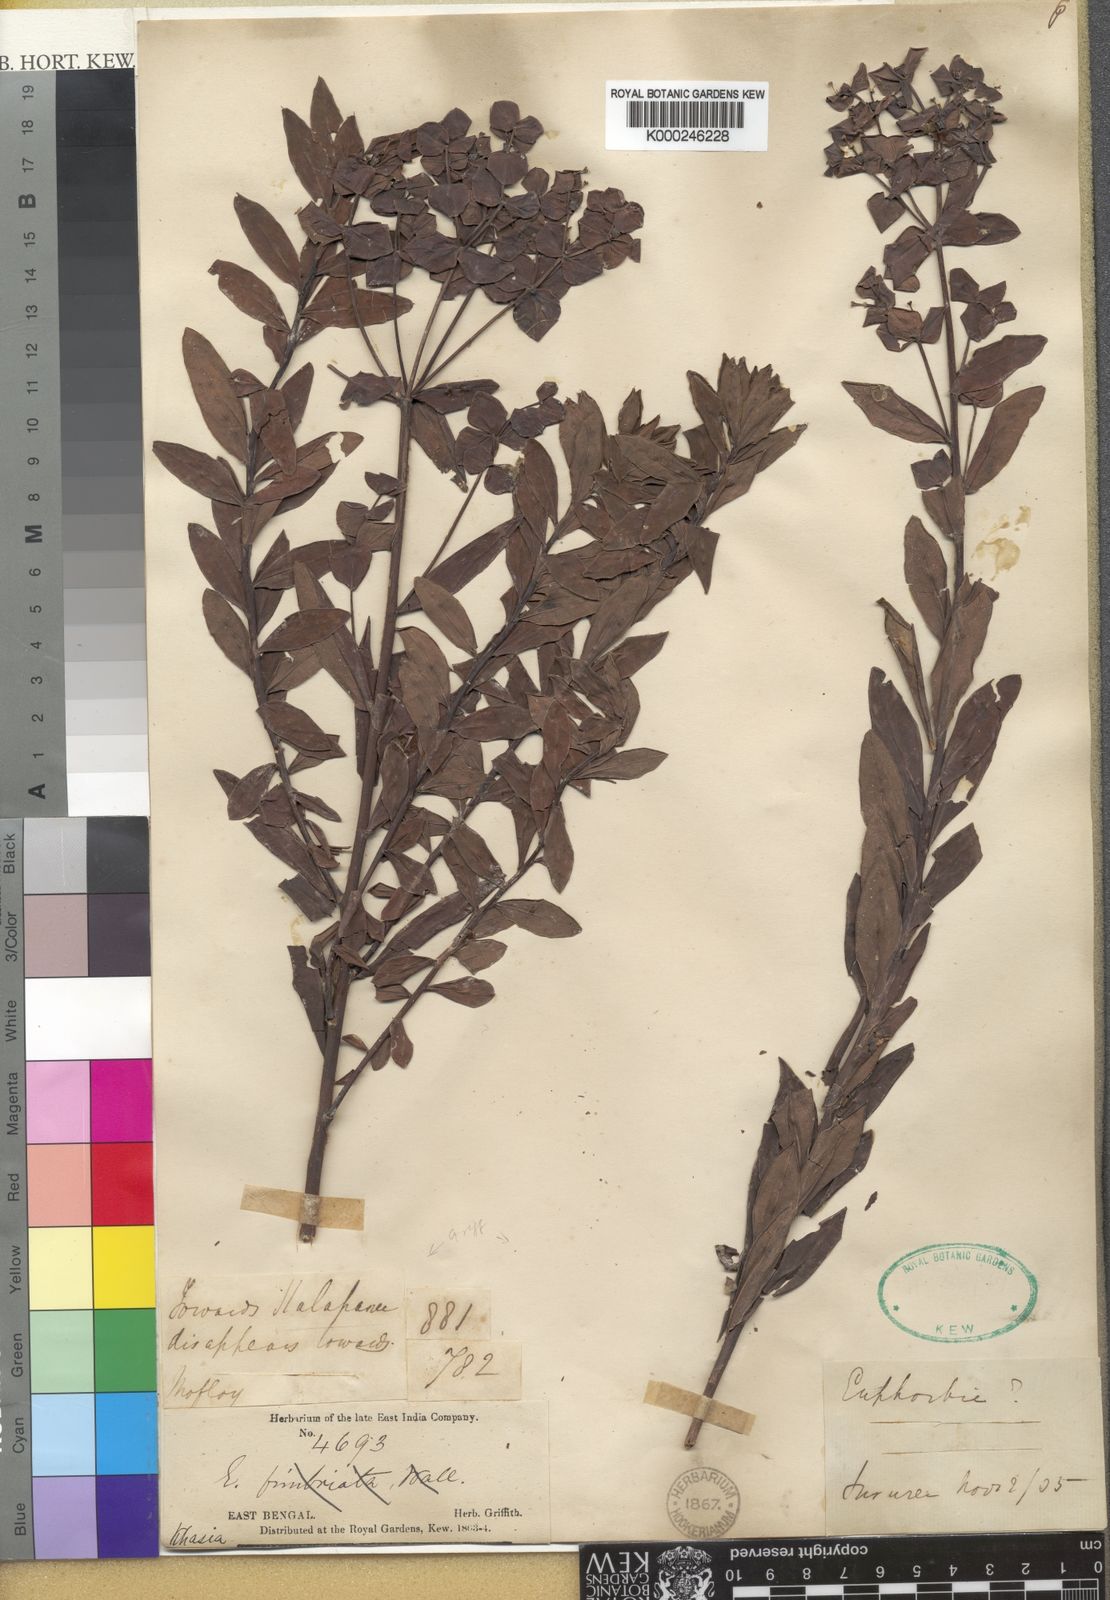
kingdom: Plantae
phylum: Tracheophyta
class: Magnoliopsida
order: Malpighiales
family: Euphorbiaceae
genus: Euphorbia
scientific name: Euphorbia khasyana
